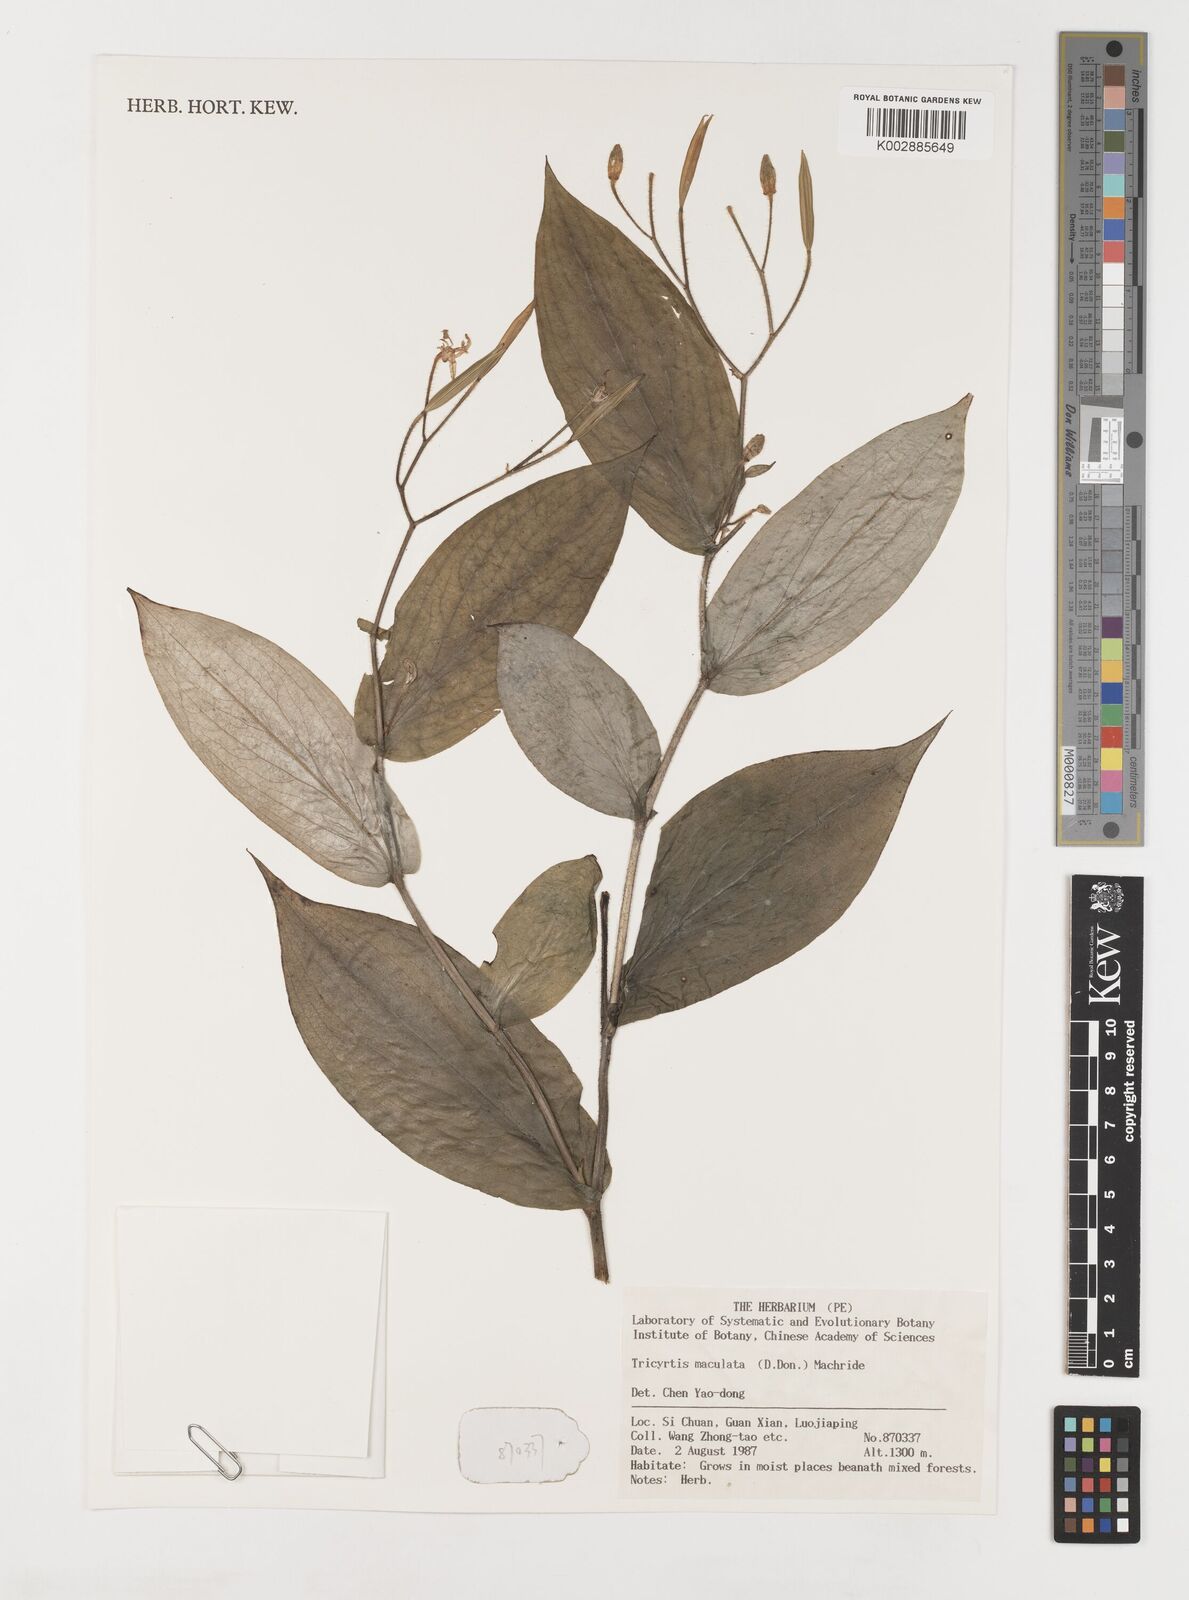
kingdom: Plantae
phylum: Tracheophyta
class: Liliopsida
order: Liliales
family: Liliaceae
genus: Tricyrtis
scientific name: Tricyrtis maculata
